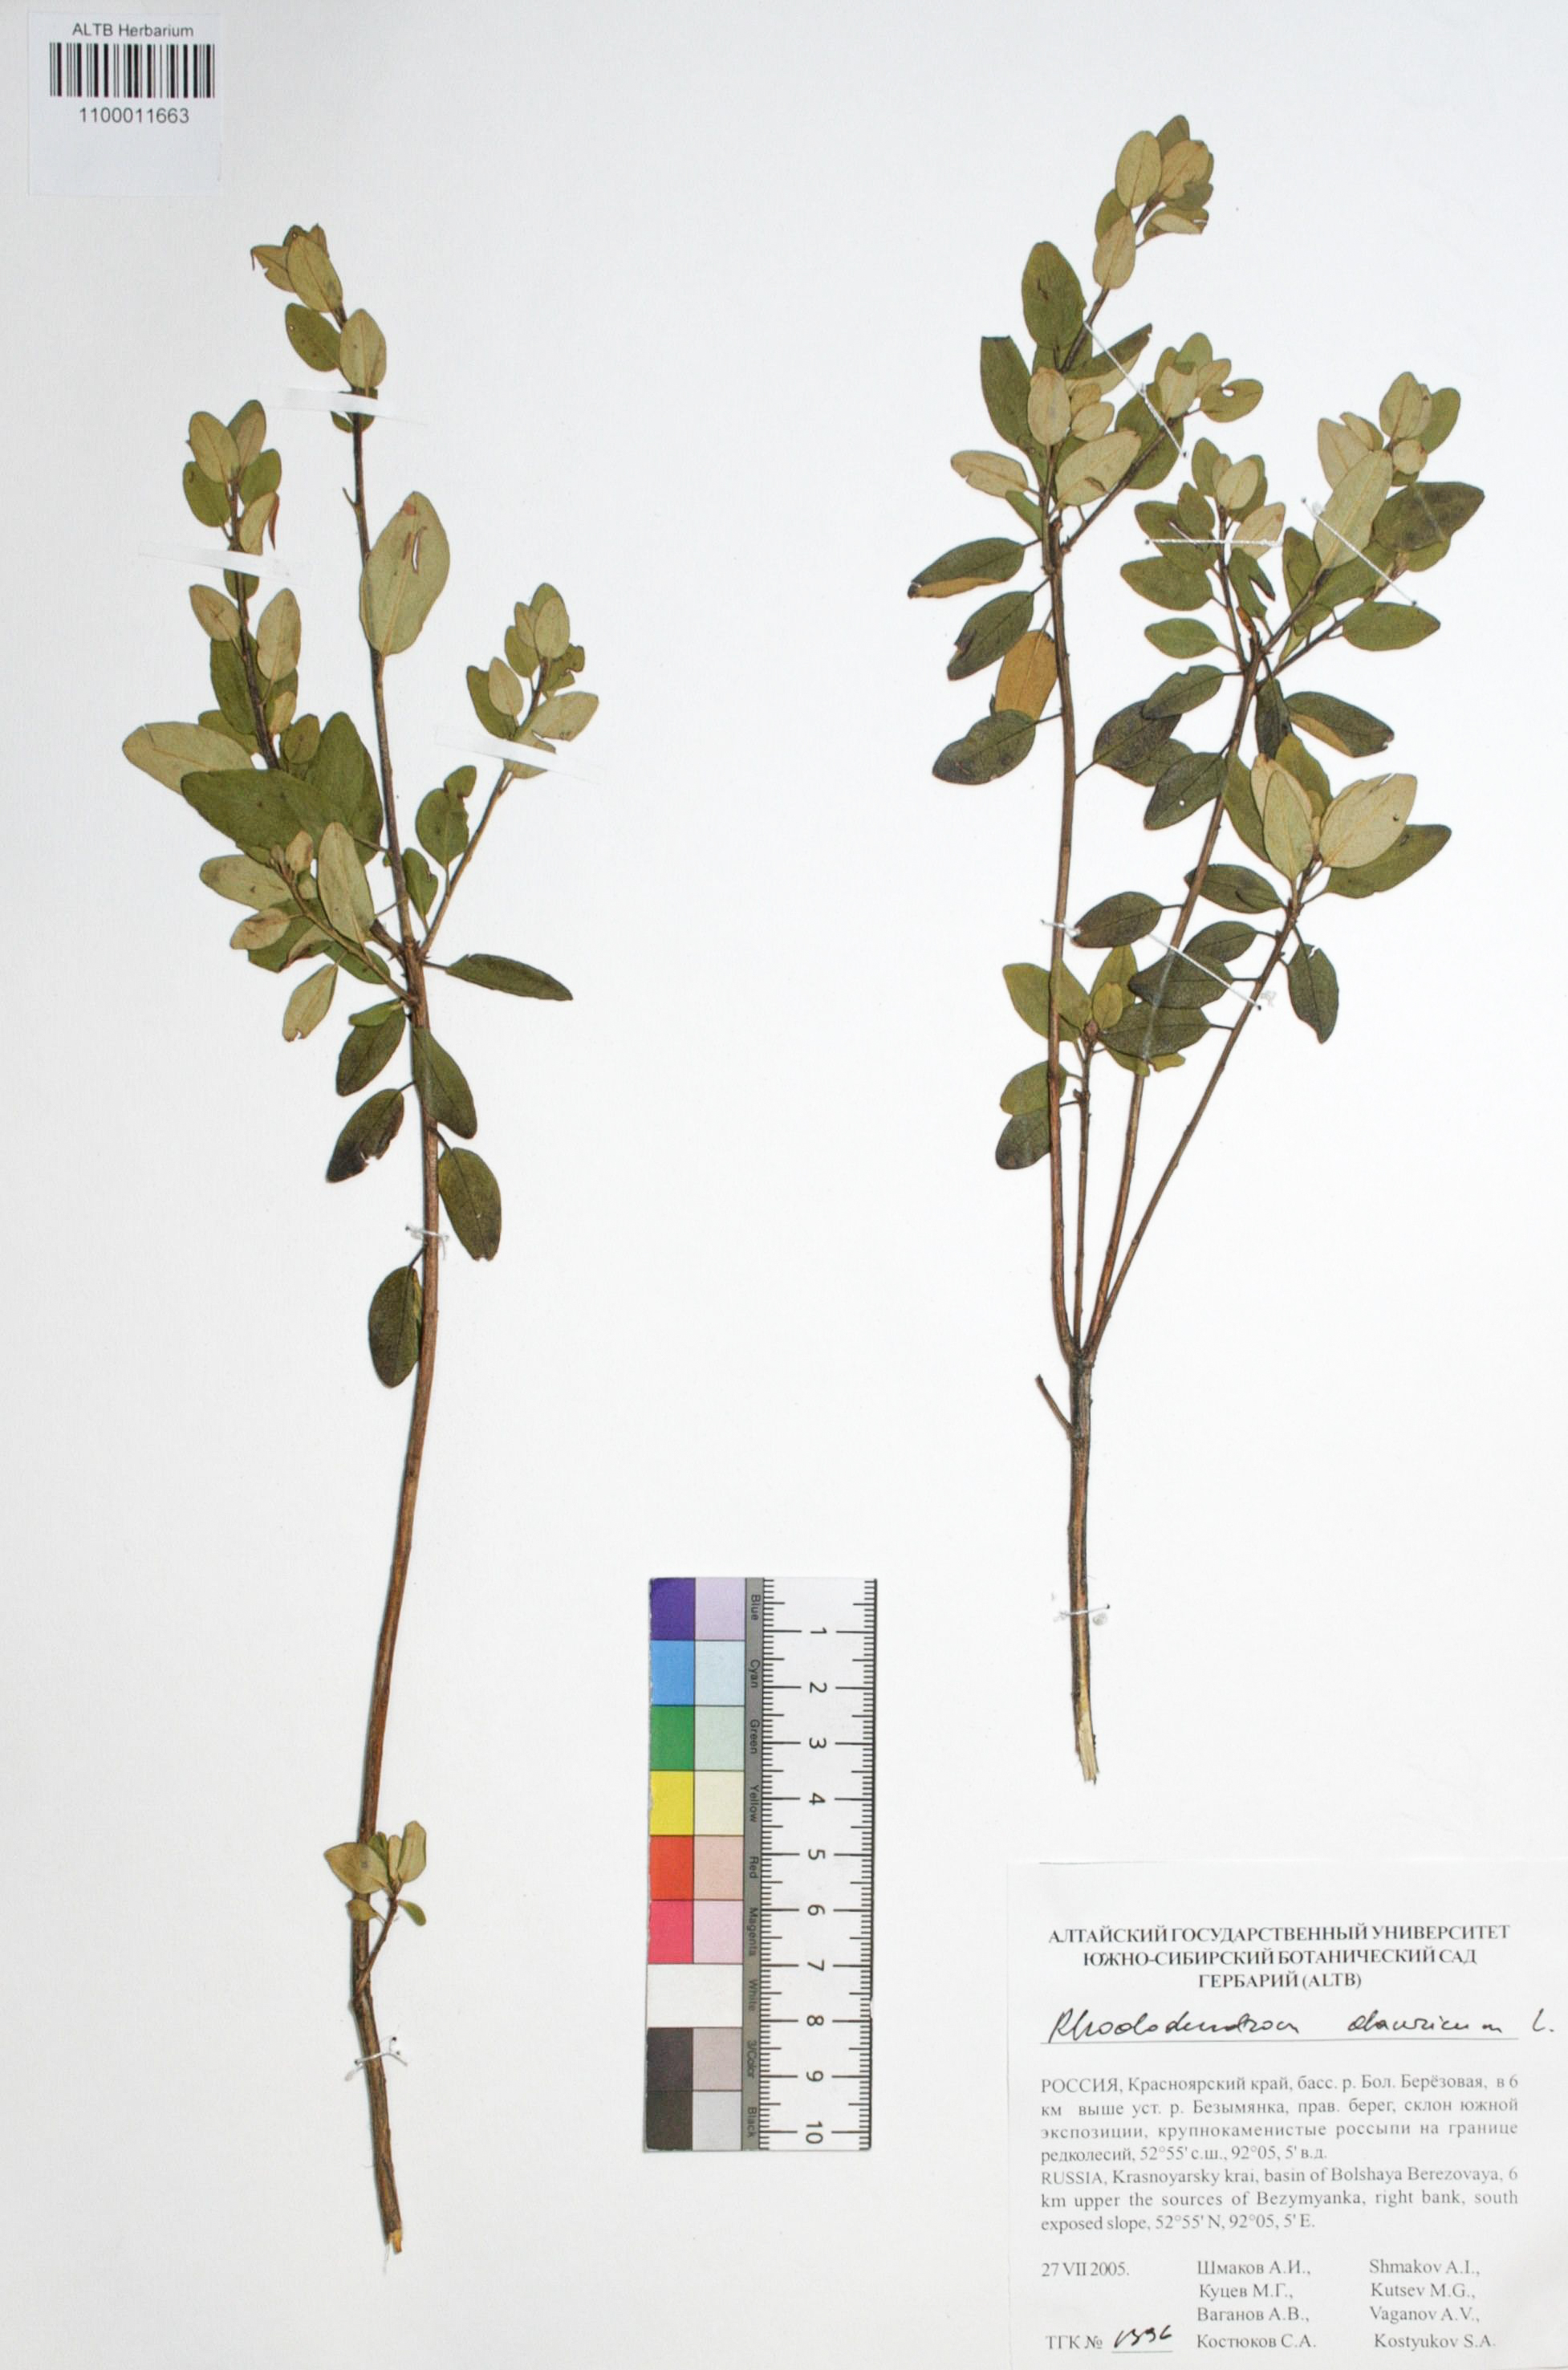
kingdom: Plantae
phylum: Tracheophyta
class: Magnoliopsida
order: Ericales
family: Ericaceae
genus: Rhododendron
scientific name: Rhododendron dahuricum
